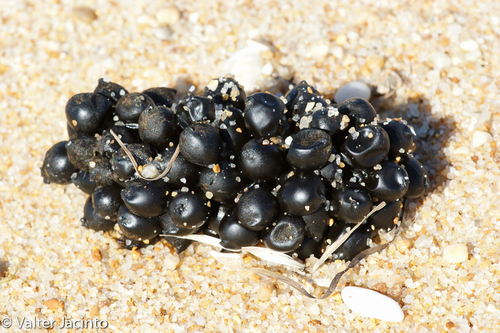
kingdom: Animalia
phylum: Mollusca
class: Cephalopoda
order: Sepiida
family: Sepiidae
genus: Sepia
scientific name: Sepia officinalis
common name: Common cuttlefish
